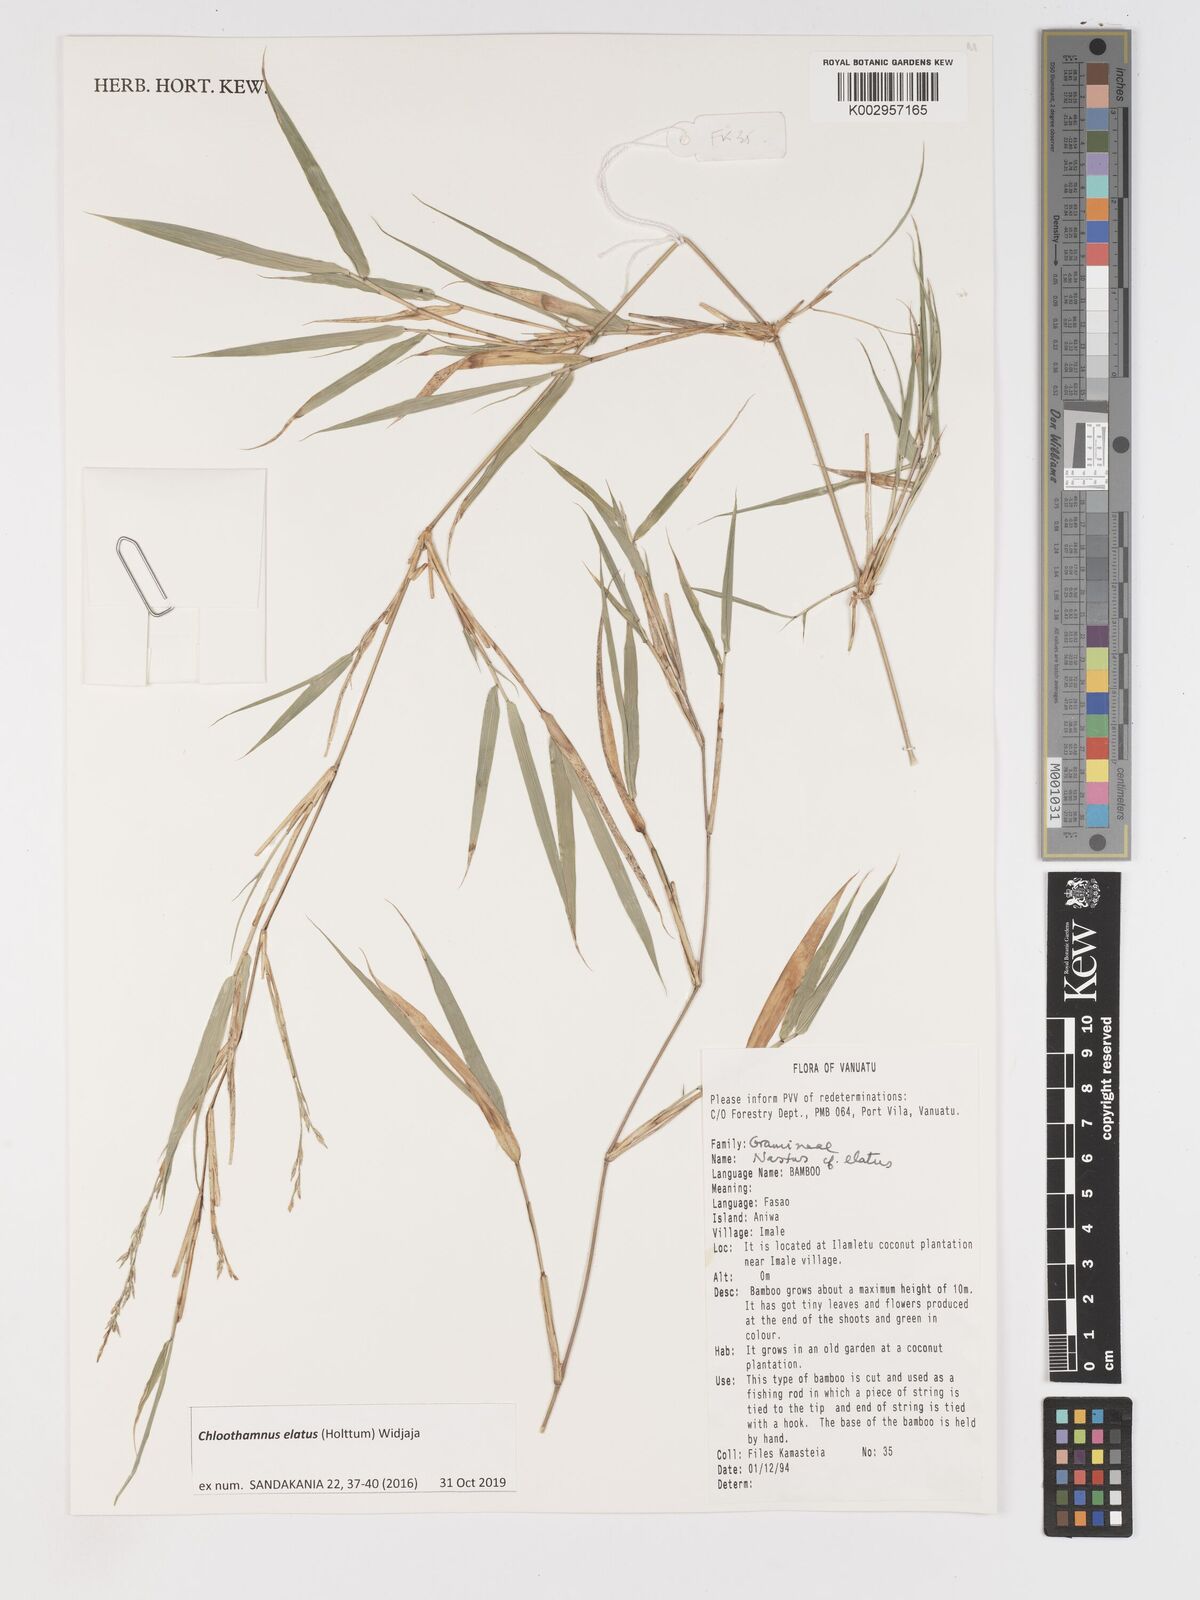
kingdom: Plantae
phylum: Tracheophyta
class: Liliopsida
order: Poales
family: Poaceae
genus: Chloothamnus
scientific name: Chloothamnus elatus
